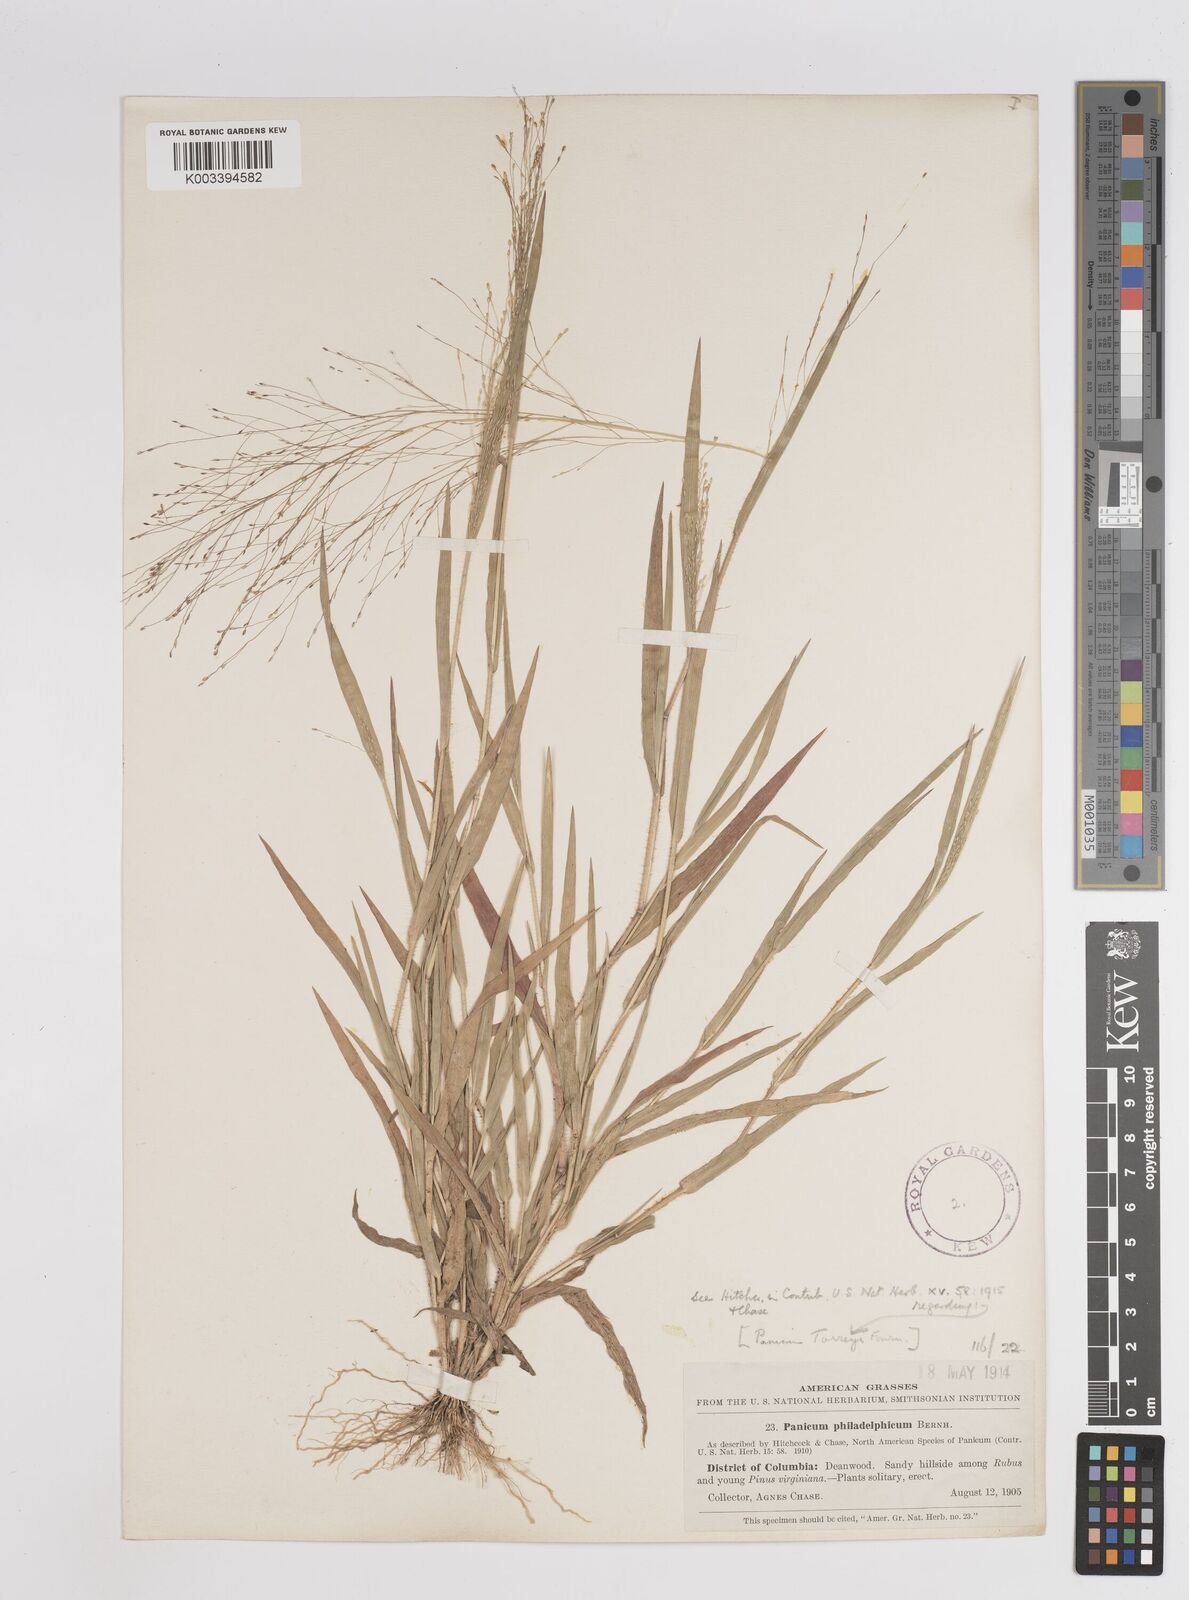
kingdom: Plantae
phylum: Tracheophyta
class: Liliopsida
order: Poales
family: Poaceae
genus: Panicum
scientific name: Panicum philadelphicum
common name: Philadelphia witchgrass
